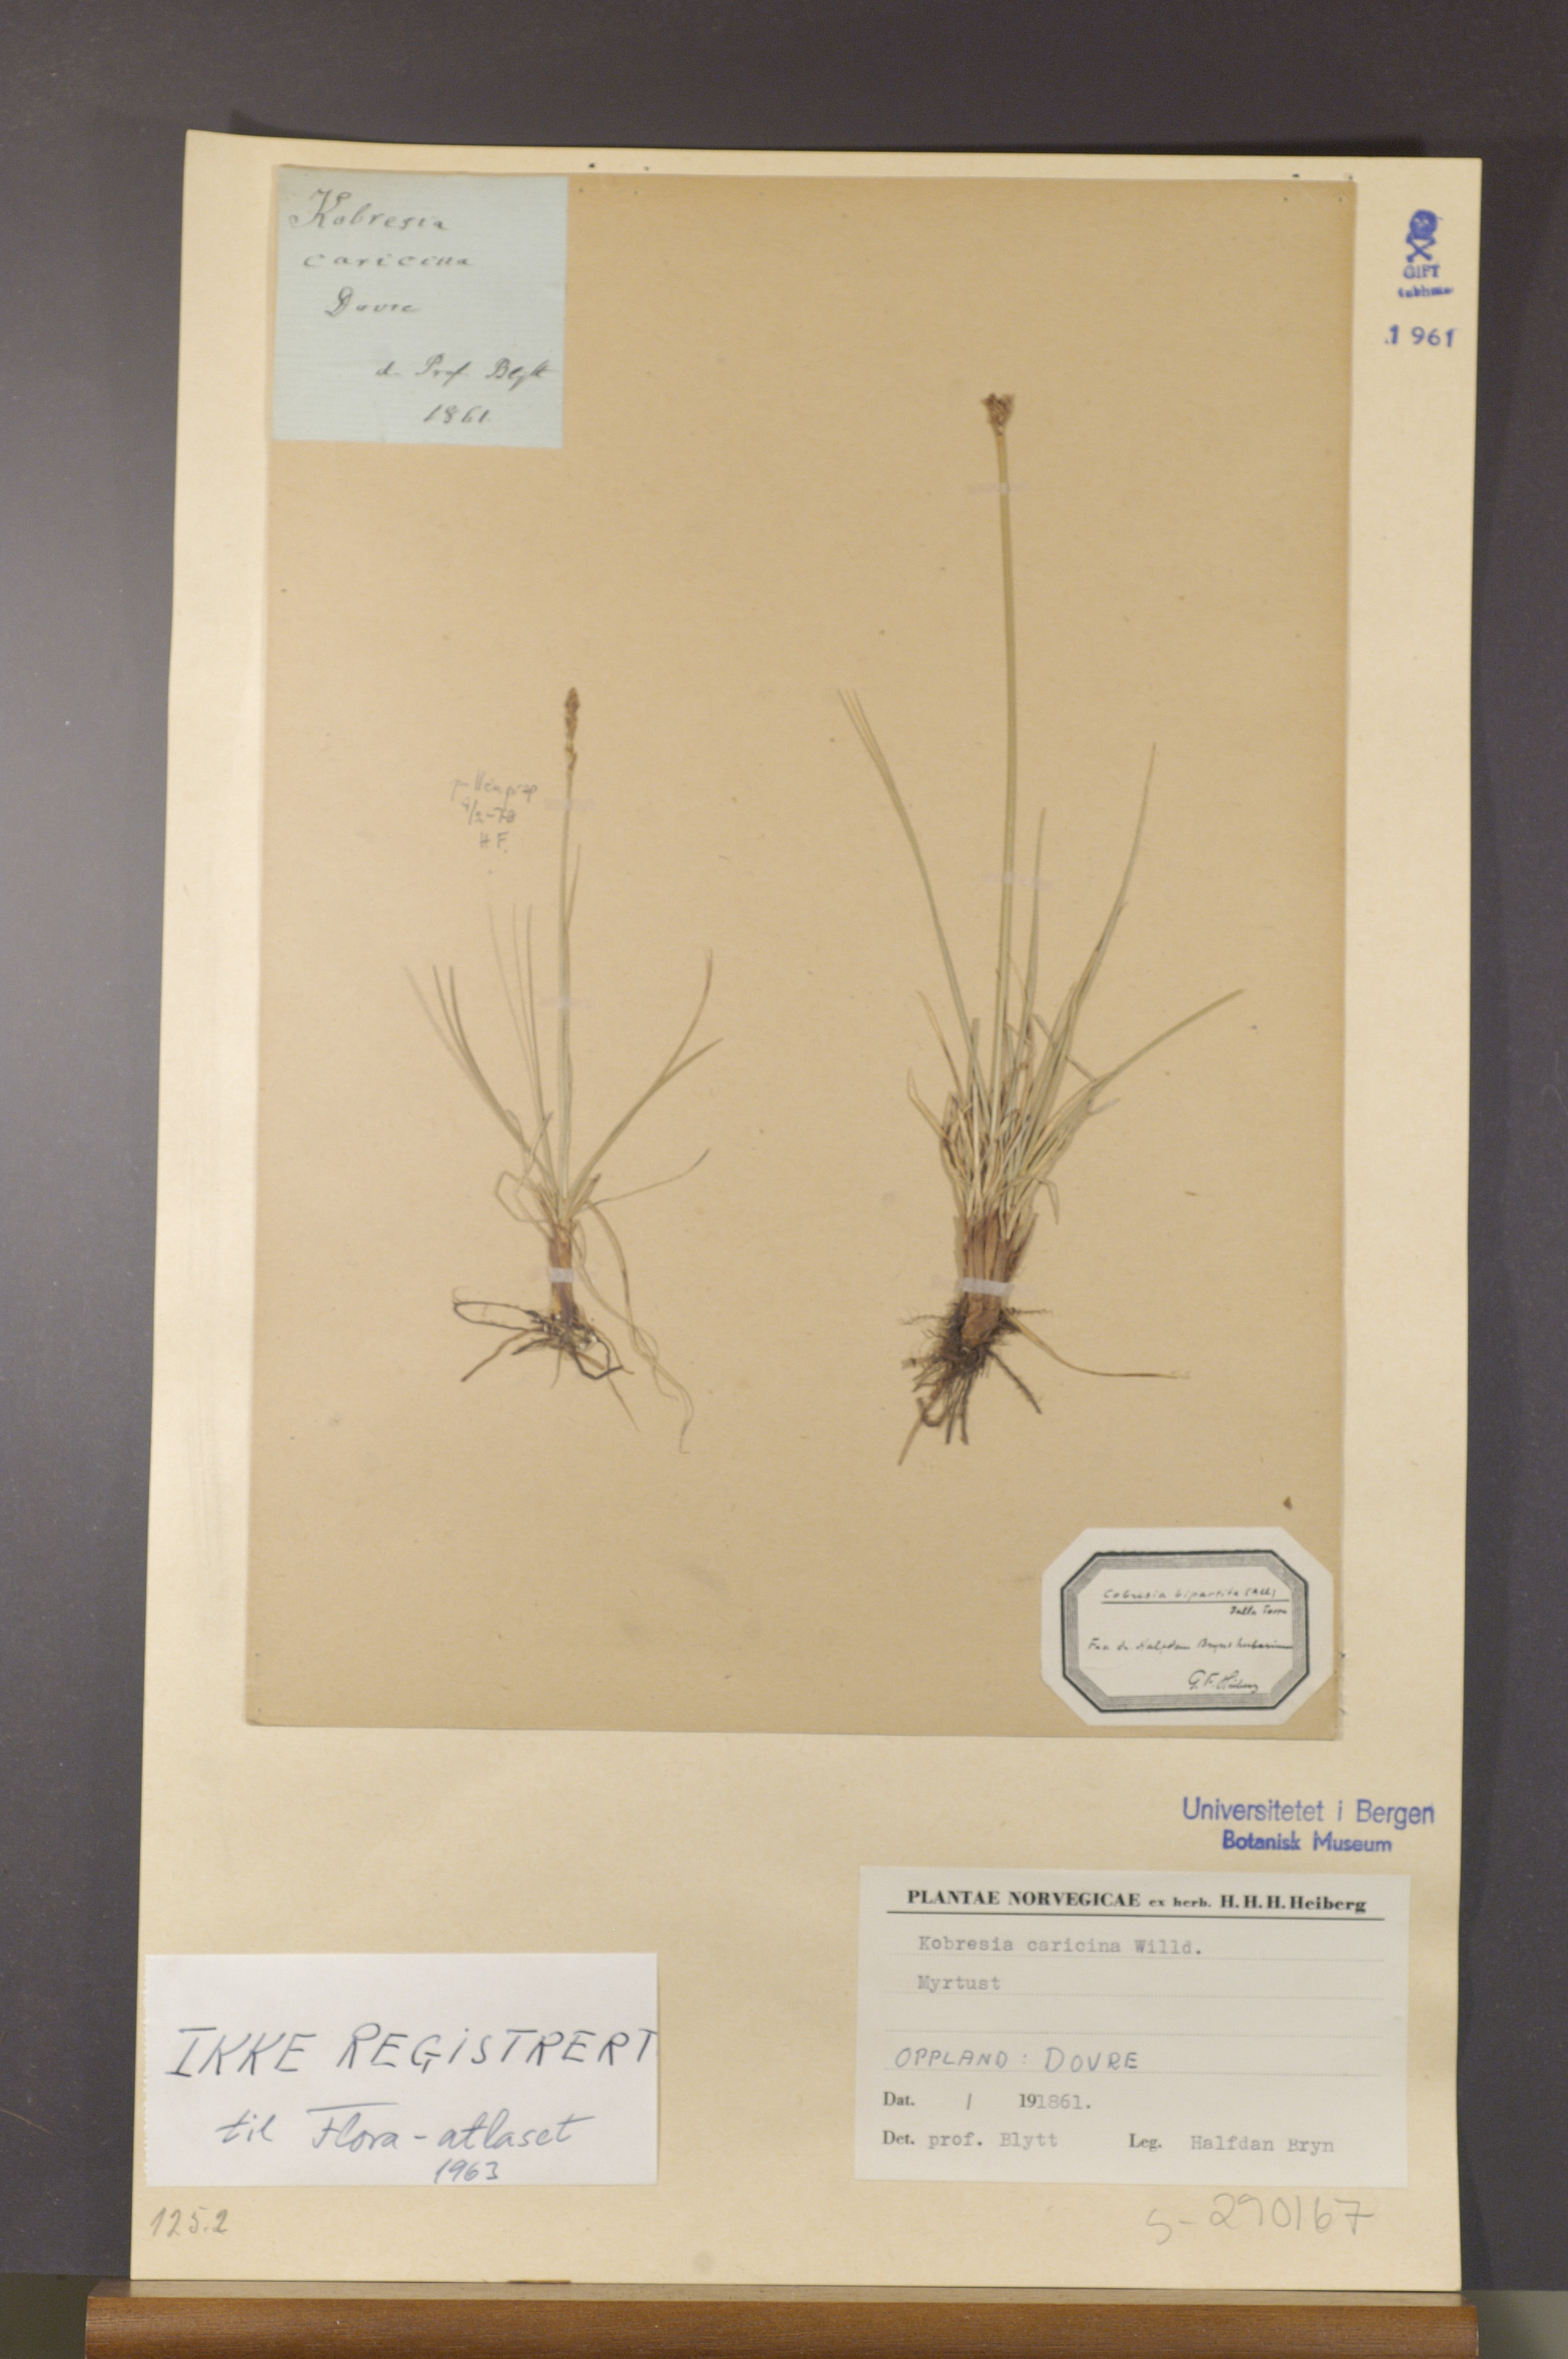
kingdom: Plantae
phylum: Tracheophyta
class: Liliopsida
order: Poales
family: Cyperaceae
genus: Carex
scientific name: Carex simpliciuscula
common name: Simple bog sedge
